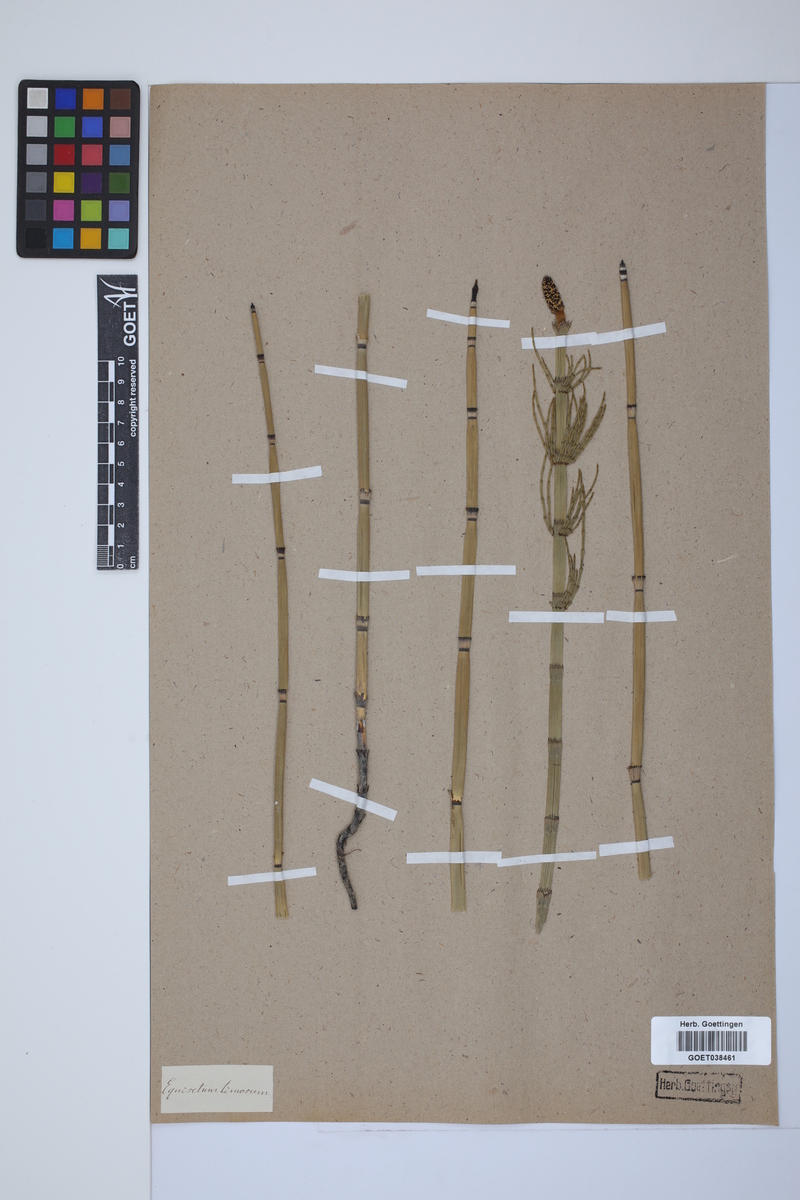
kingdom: Plantae
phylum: Tracheophyta
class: Polypodiopsida
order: Equisetales
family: Equisetaceae
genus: Equisetum
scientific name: Equisetum fluviatile
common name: Water horsetail
